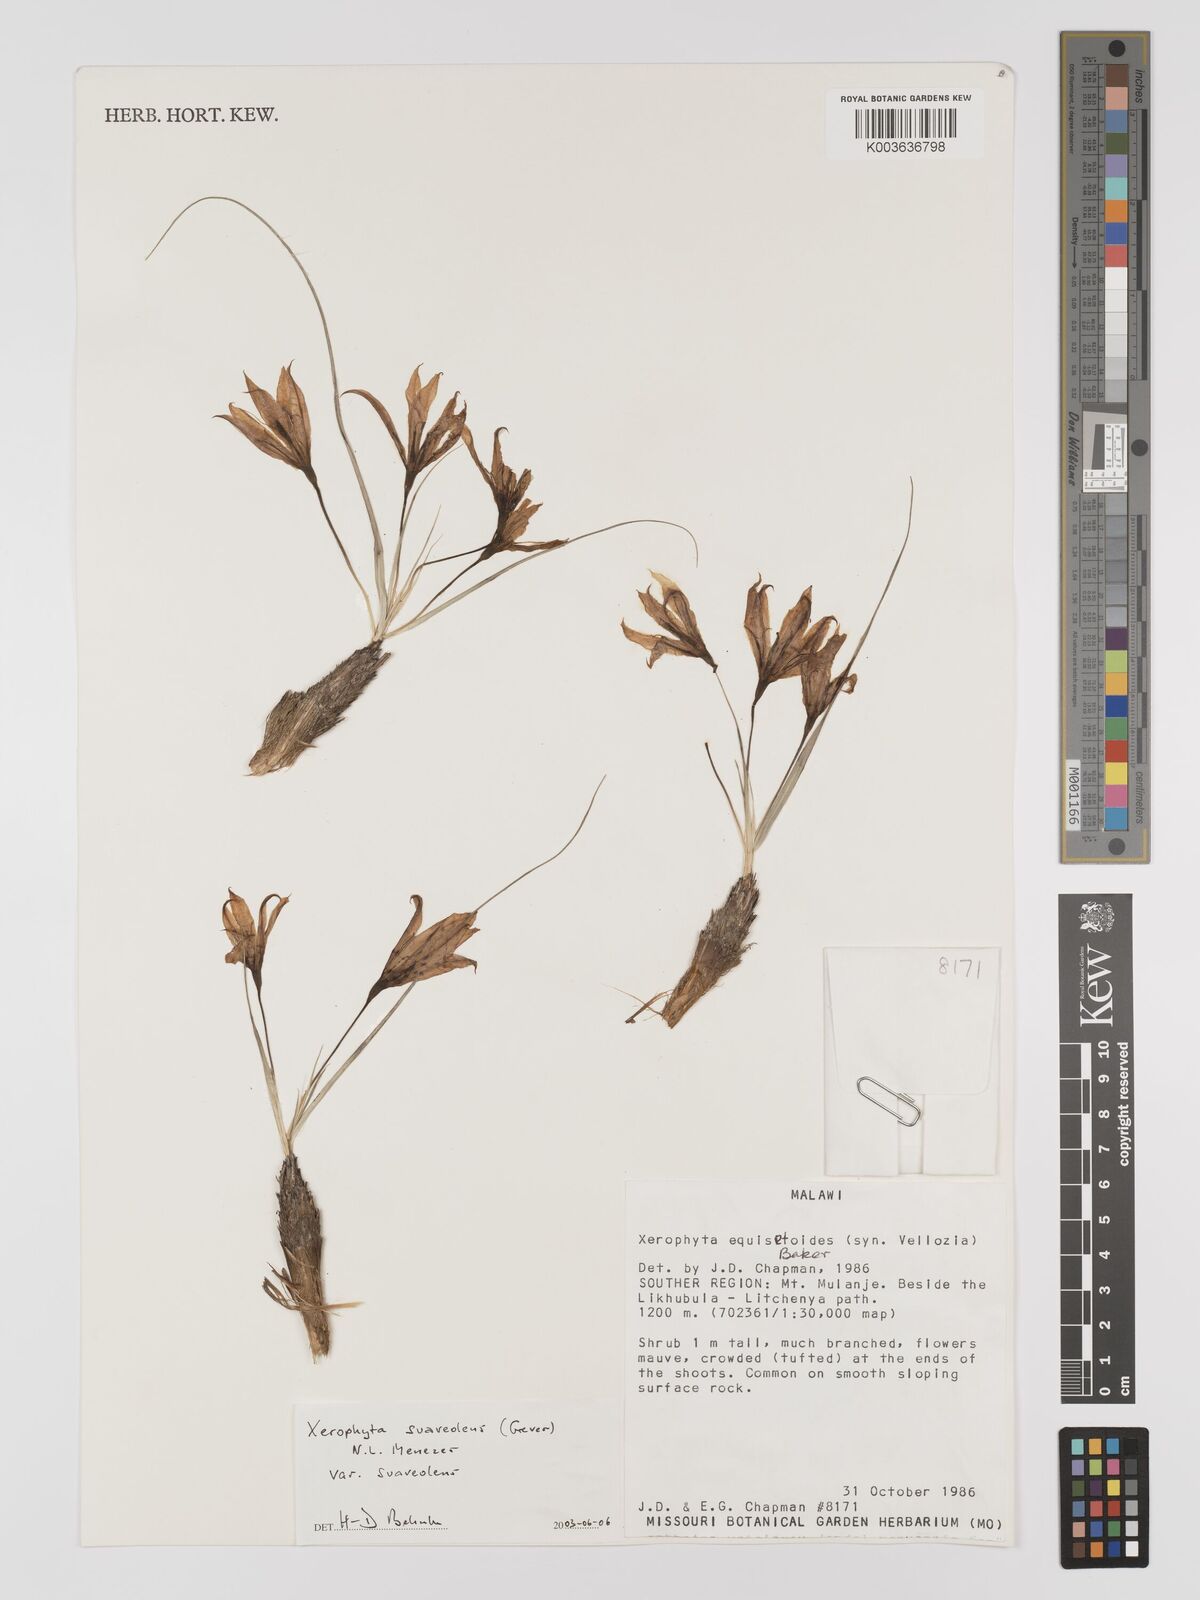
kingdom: Plantae
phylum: Tracheophyta
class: Liliopsida
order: Pandanales
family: Velloziaceae
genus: Xerophyta
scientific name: Xerophyta suaveolens
